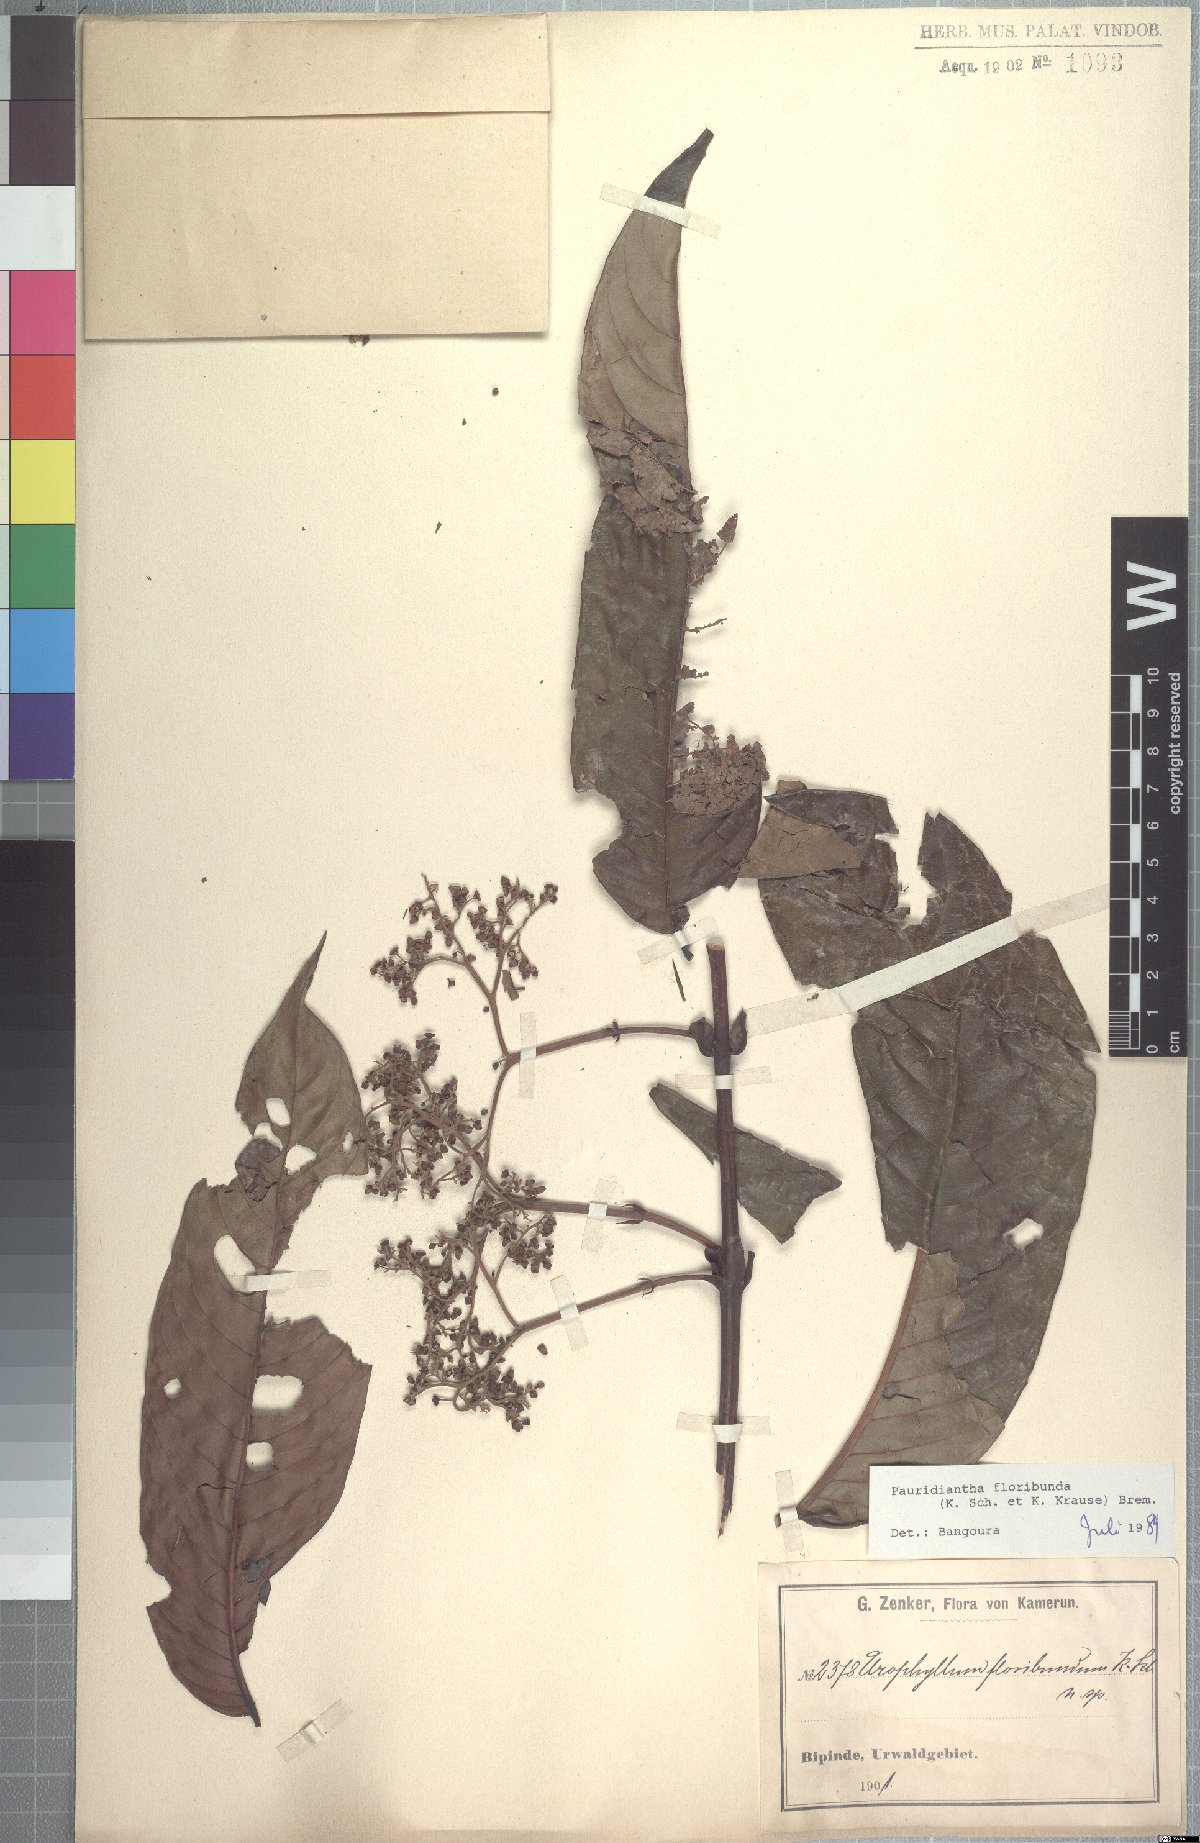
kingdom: Plantae
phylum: Tracheophyta
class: Magnoliopsida
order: Gentianales
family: Rubiaceae
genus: Pauridiantha
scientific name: Pauridiantha floribunda
